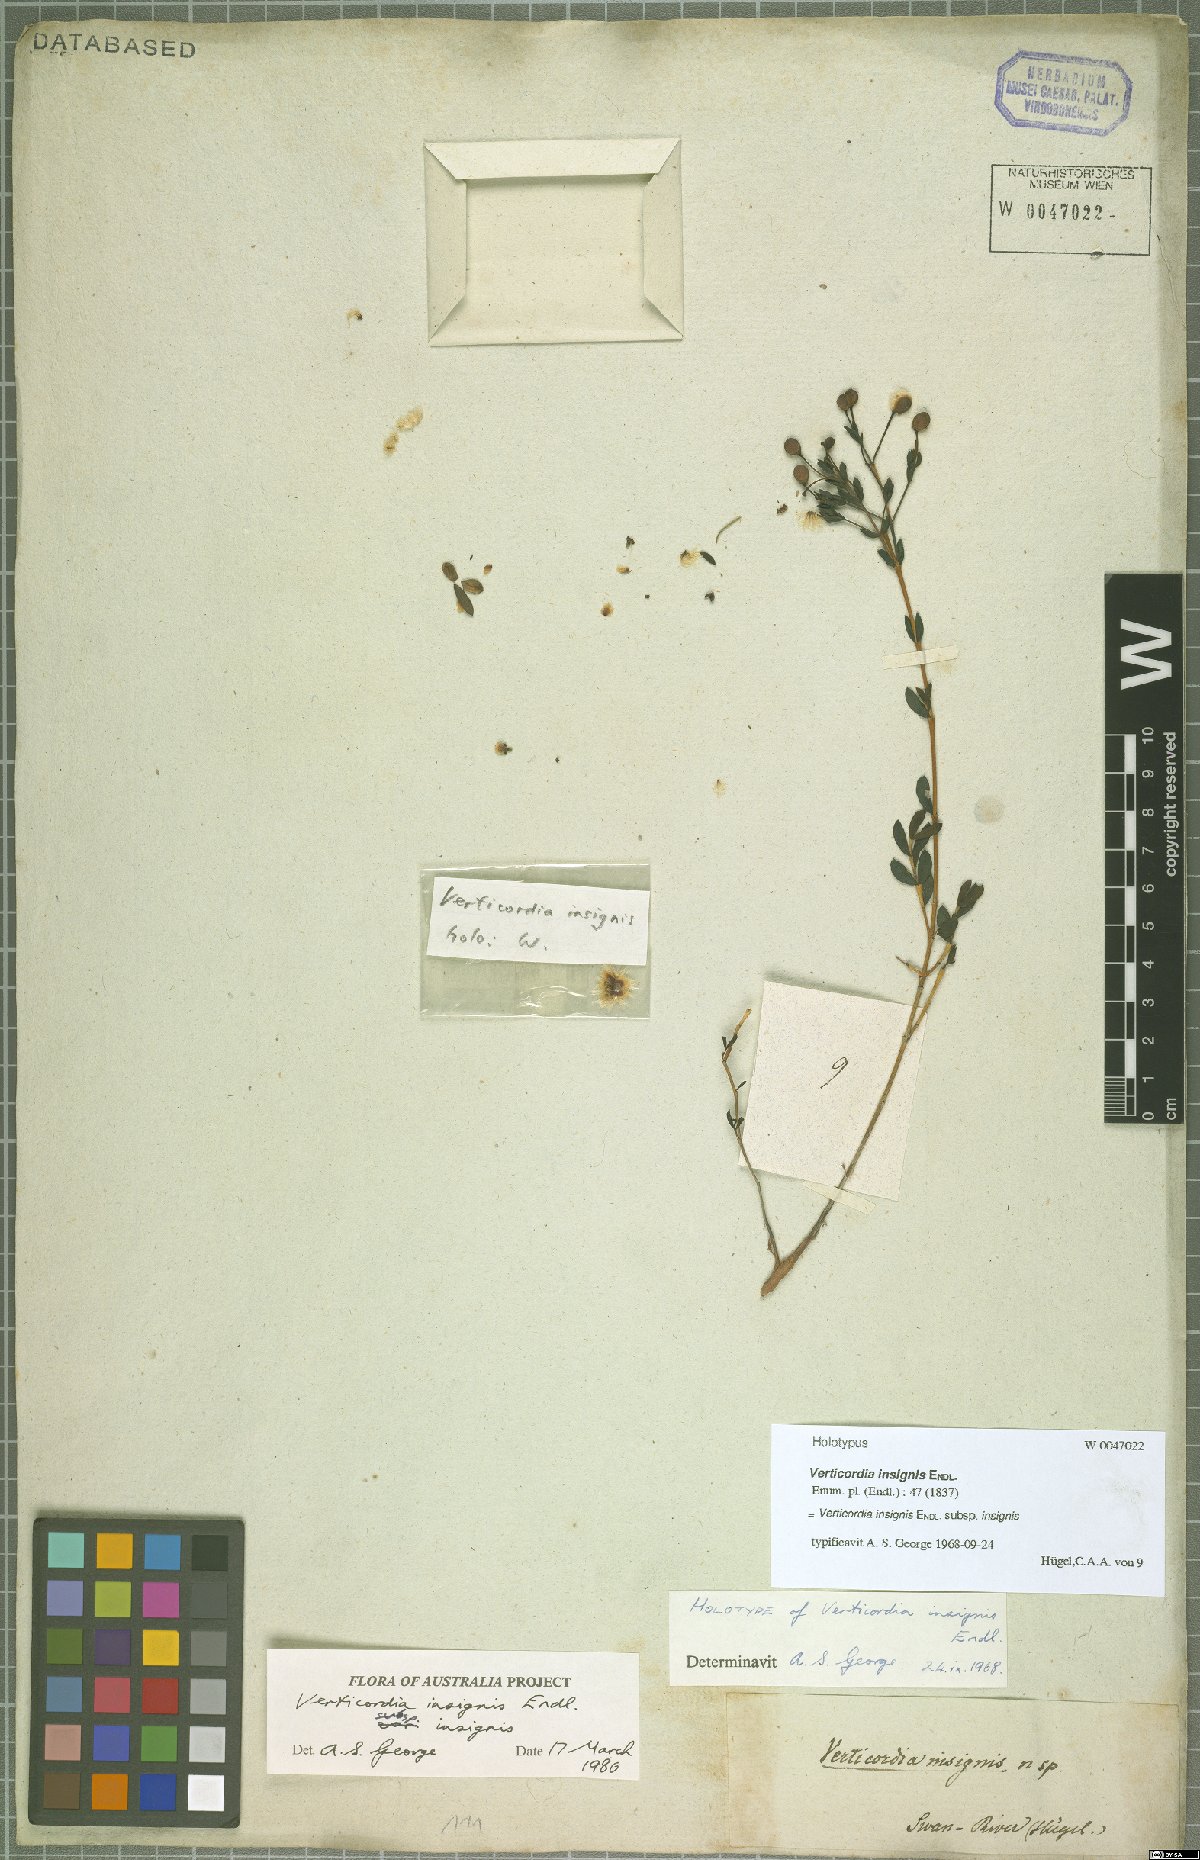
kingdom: Plantae
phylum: Tracheophyta
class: Magnoliopsida
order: Myrtales
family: Myrtaceae
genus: Verticordia
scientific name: Verticordia insignis
